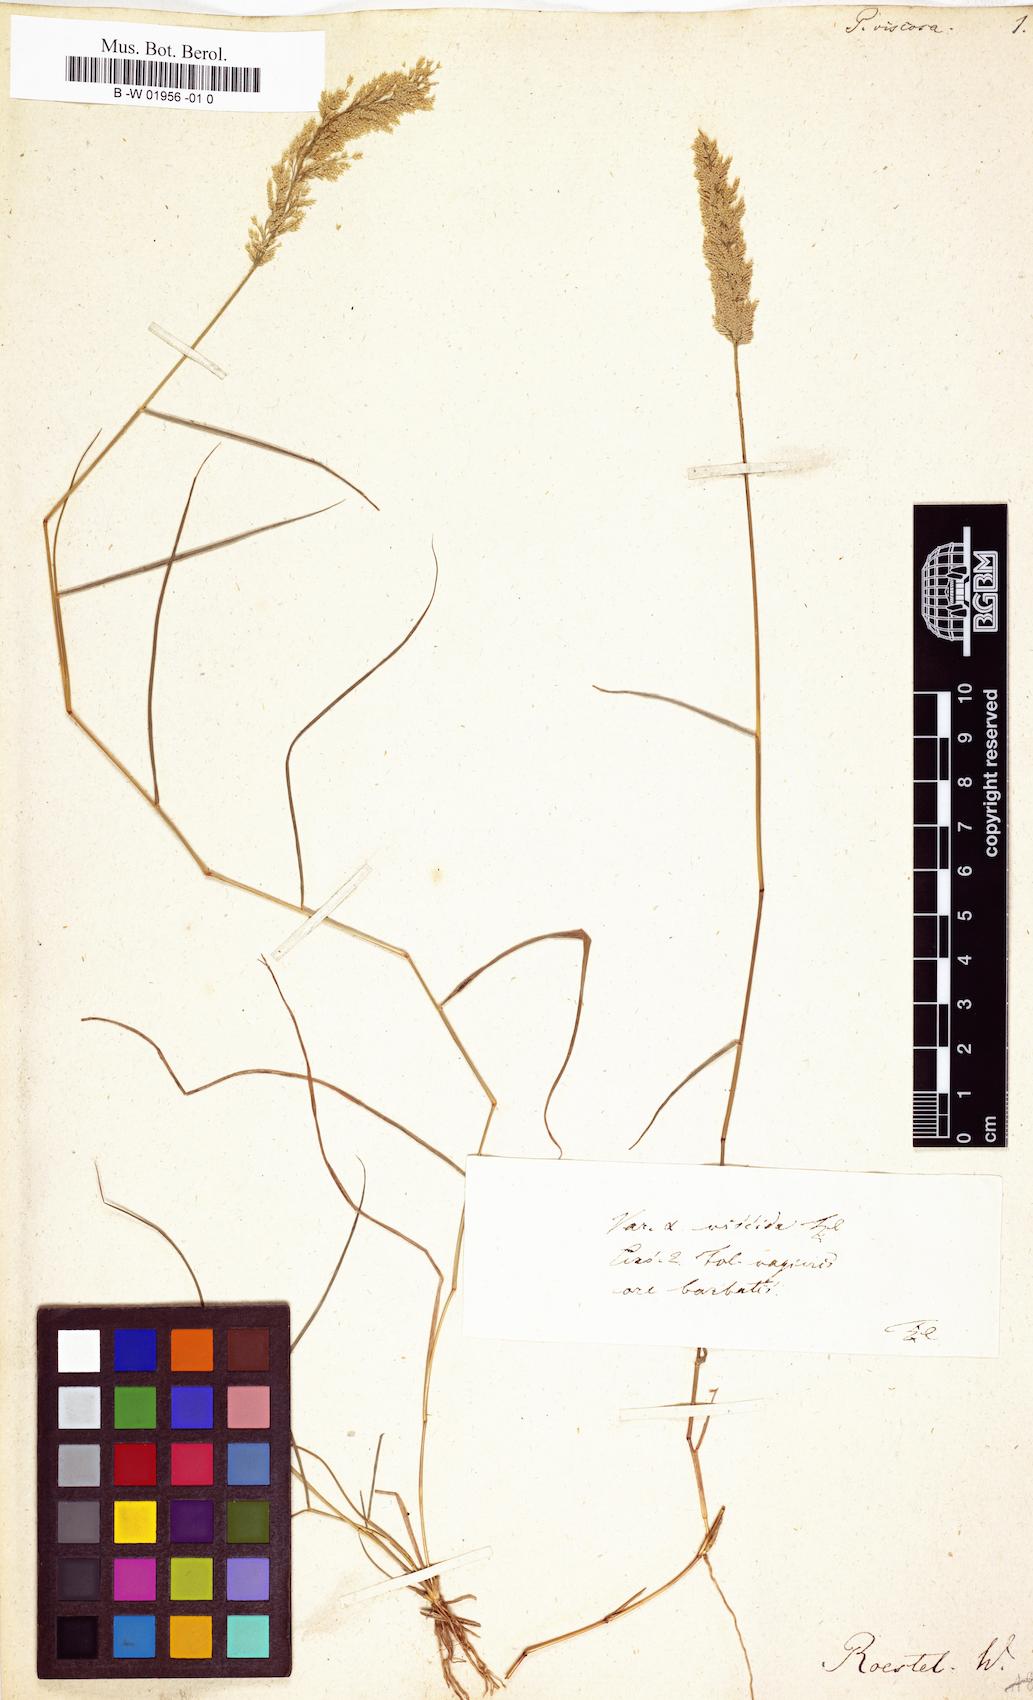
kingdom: Plantae
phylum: Tracheophyta
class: Liliopsida
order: Poales
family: Poaceae
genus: Eragrostis
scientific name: Eragrostis viscosa
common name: Sticky love grass
